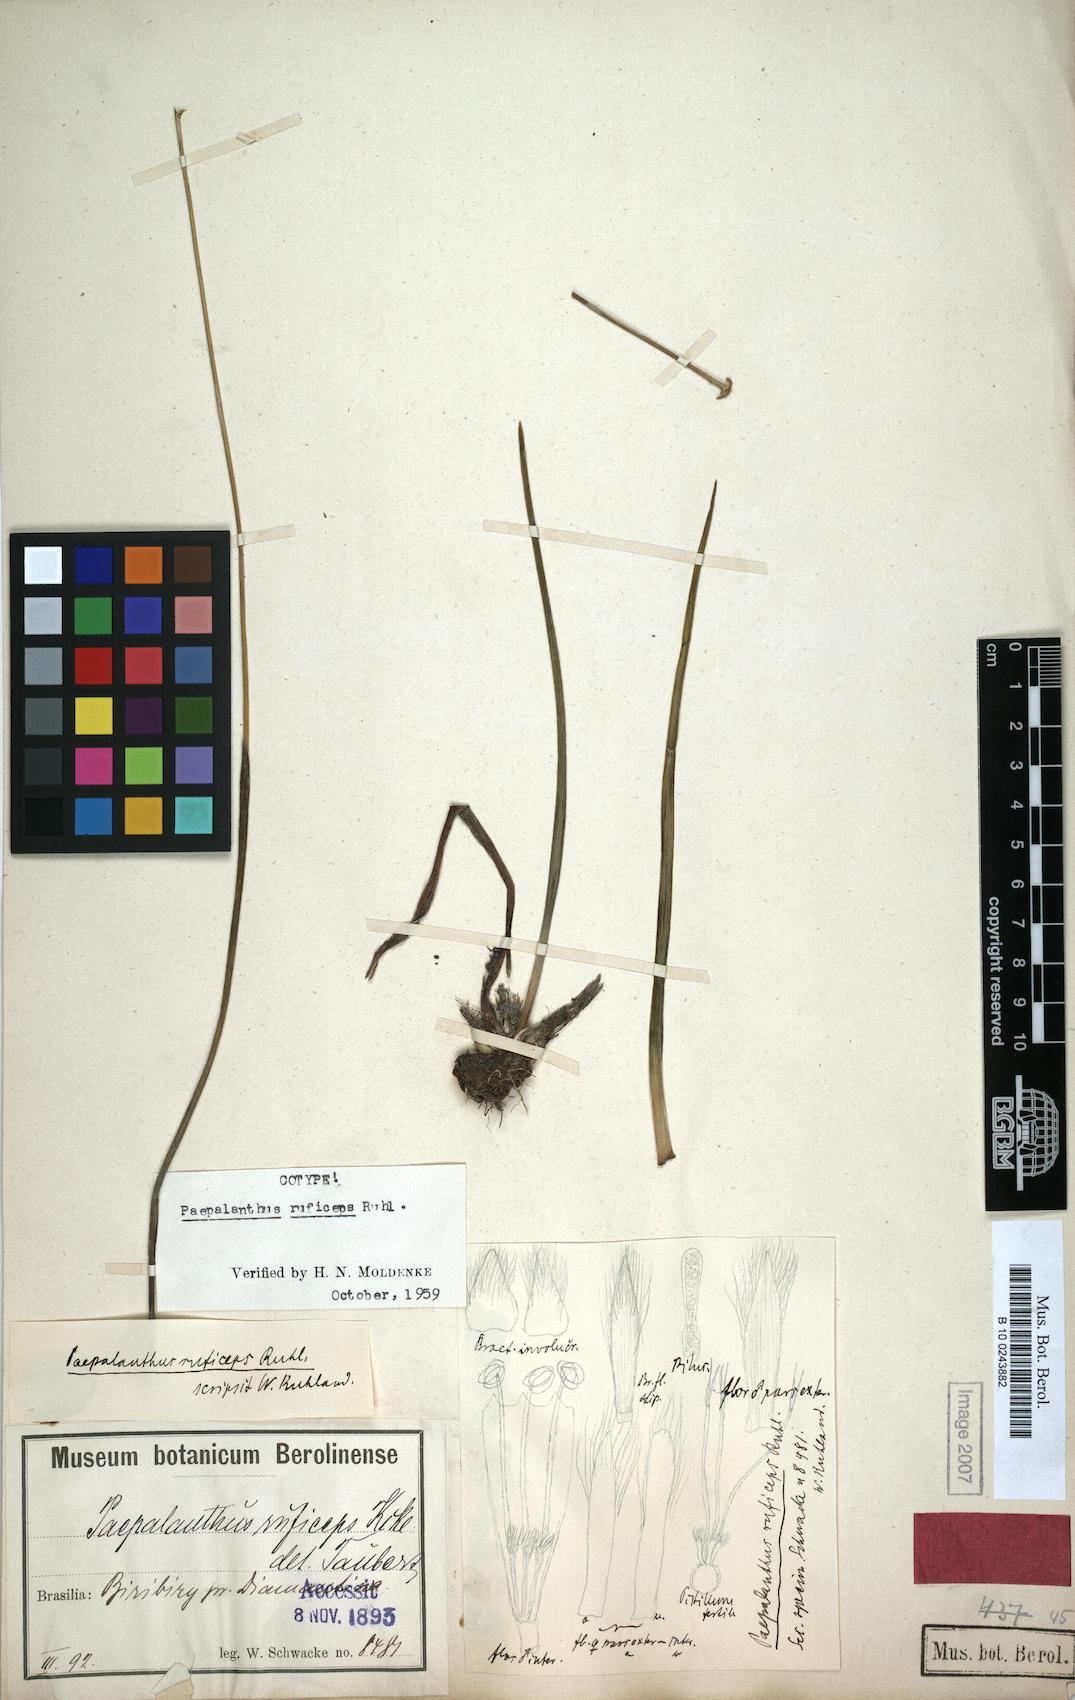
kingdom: Plantae
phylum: Tracheophyta
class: Liliopsida
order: Poales
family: Eriocaulaceae
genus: Paepalanthus
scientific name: Paepalanthus ruficeps
